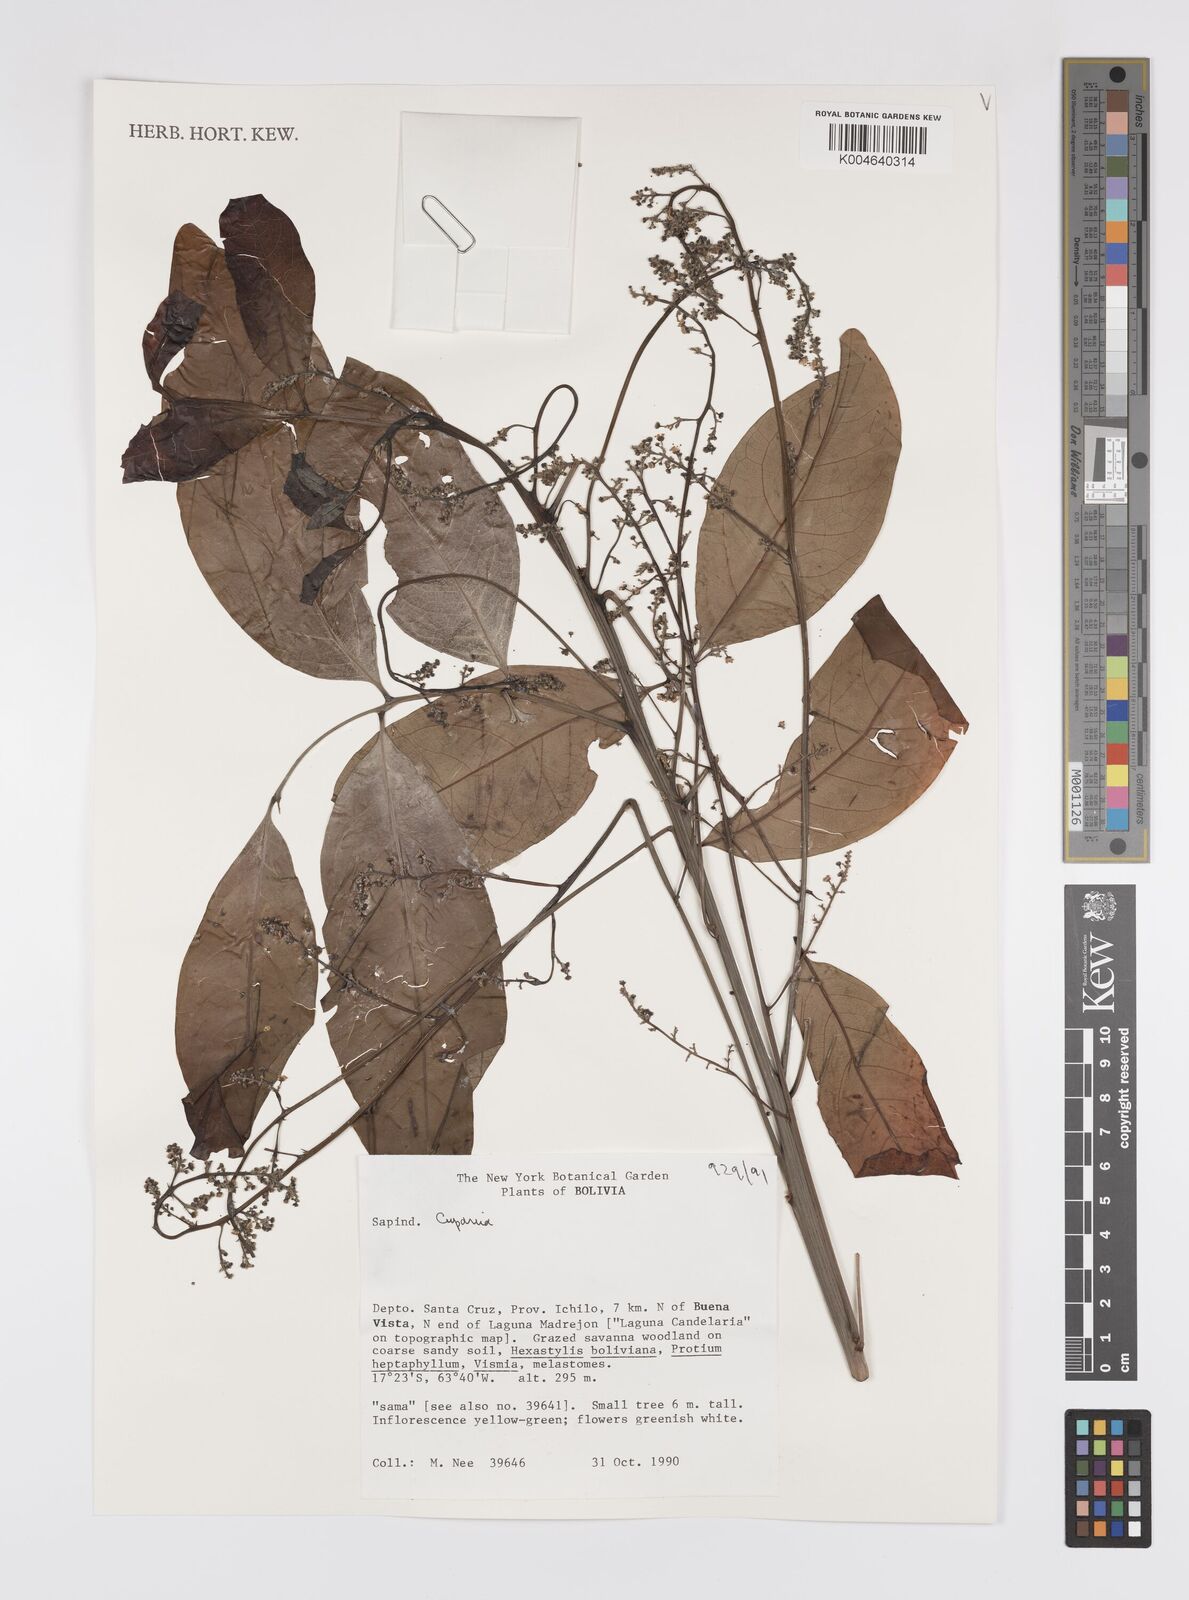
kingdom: Plantae
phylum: Tracheophyta
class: Magnoliopsida
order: Sapindales
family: Sapindaceae
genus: Cupania
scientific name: Cupania
